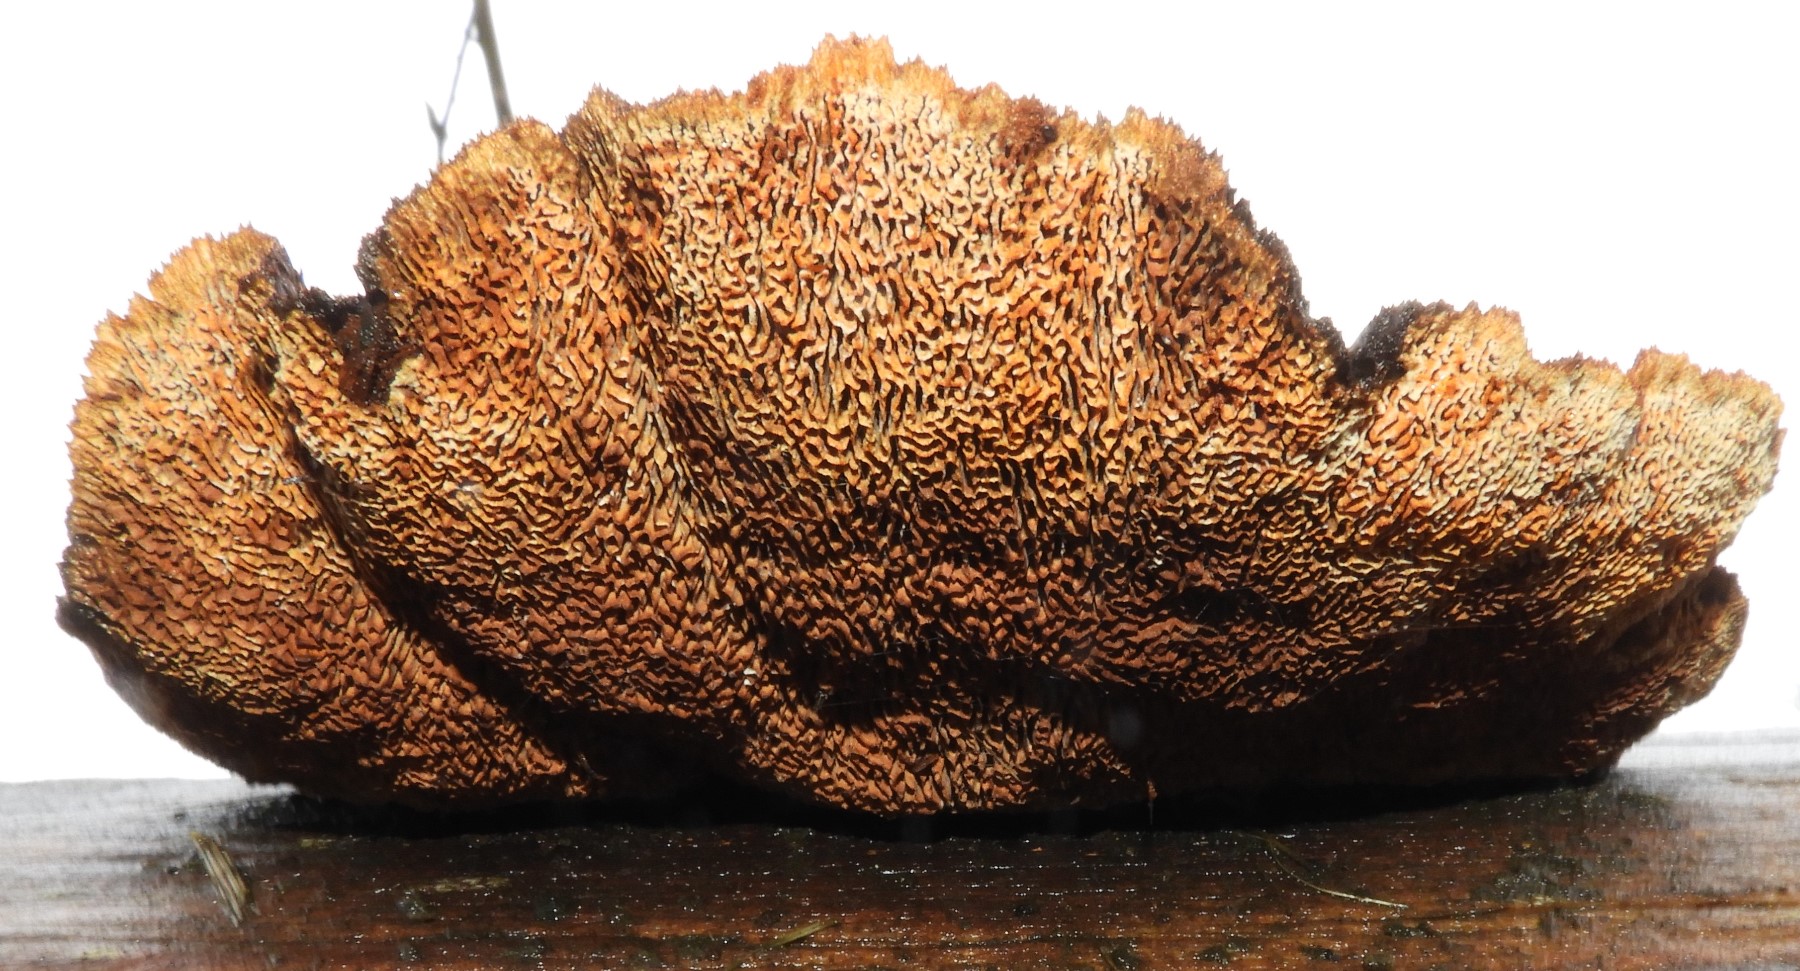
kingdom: Fungi
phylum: Basidiomycota
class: Agaricomycetes
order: Gloeophyllales
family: Gloeophyllaceae
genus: Gloeophyllum
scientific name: Gloeophyllum sepiarium
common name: fyrre-korkhat
